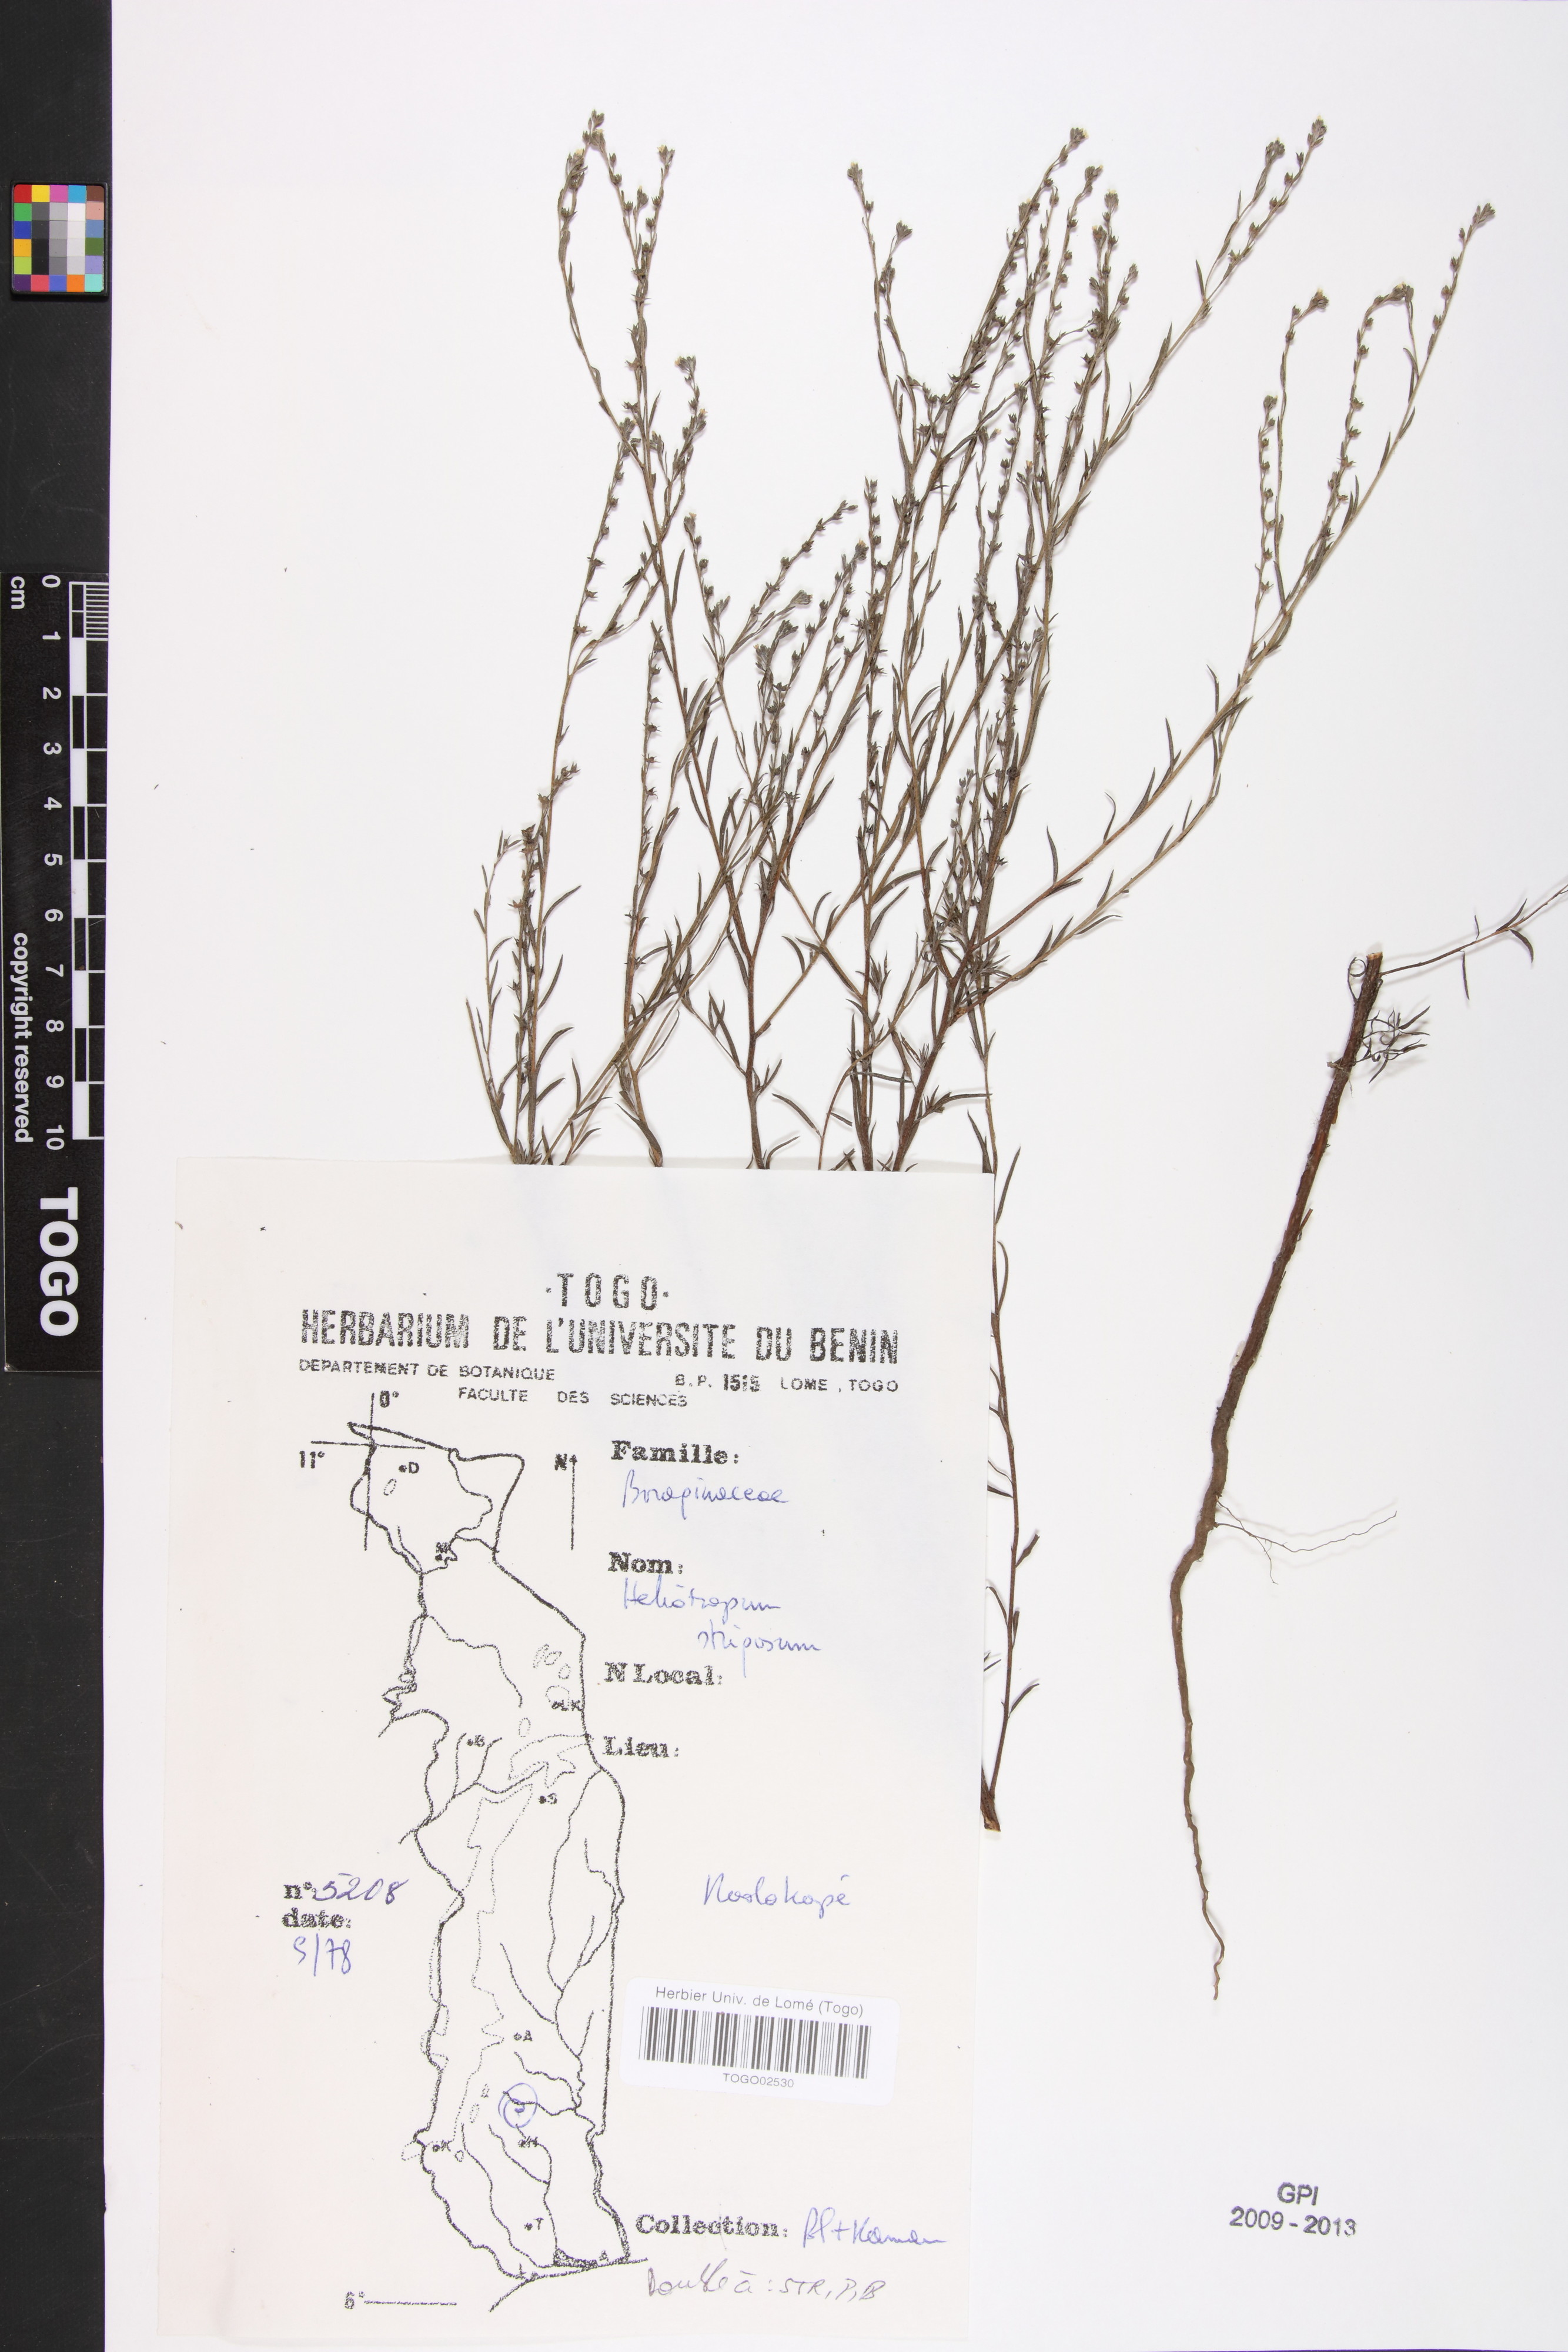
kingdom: Plantae
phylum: Tracheophyta
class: Magnoliopsida
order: Boraginales
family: Heliotropiaceae
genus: Euploca
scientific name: Euploca strigosa
